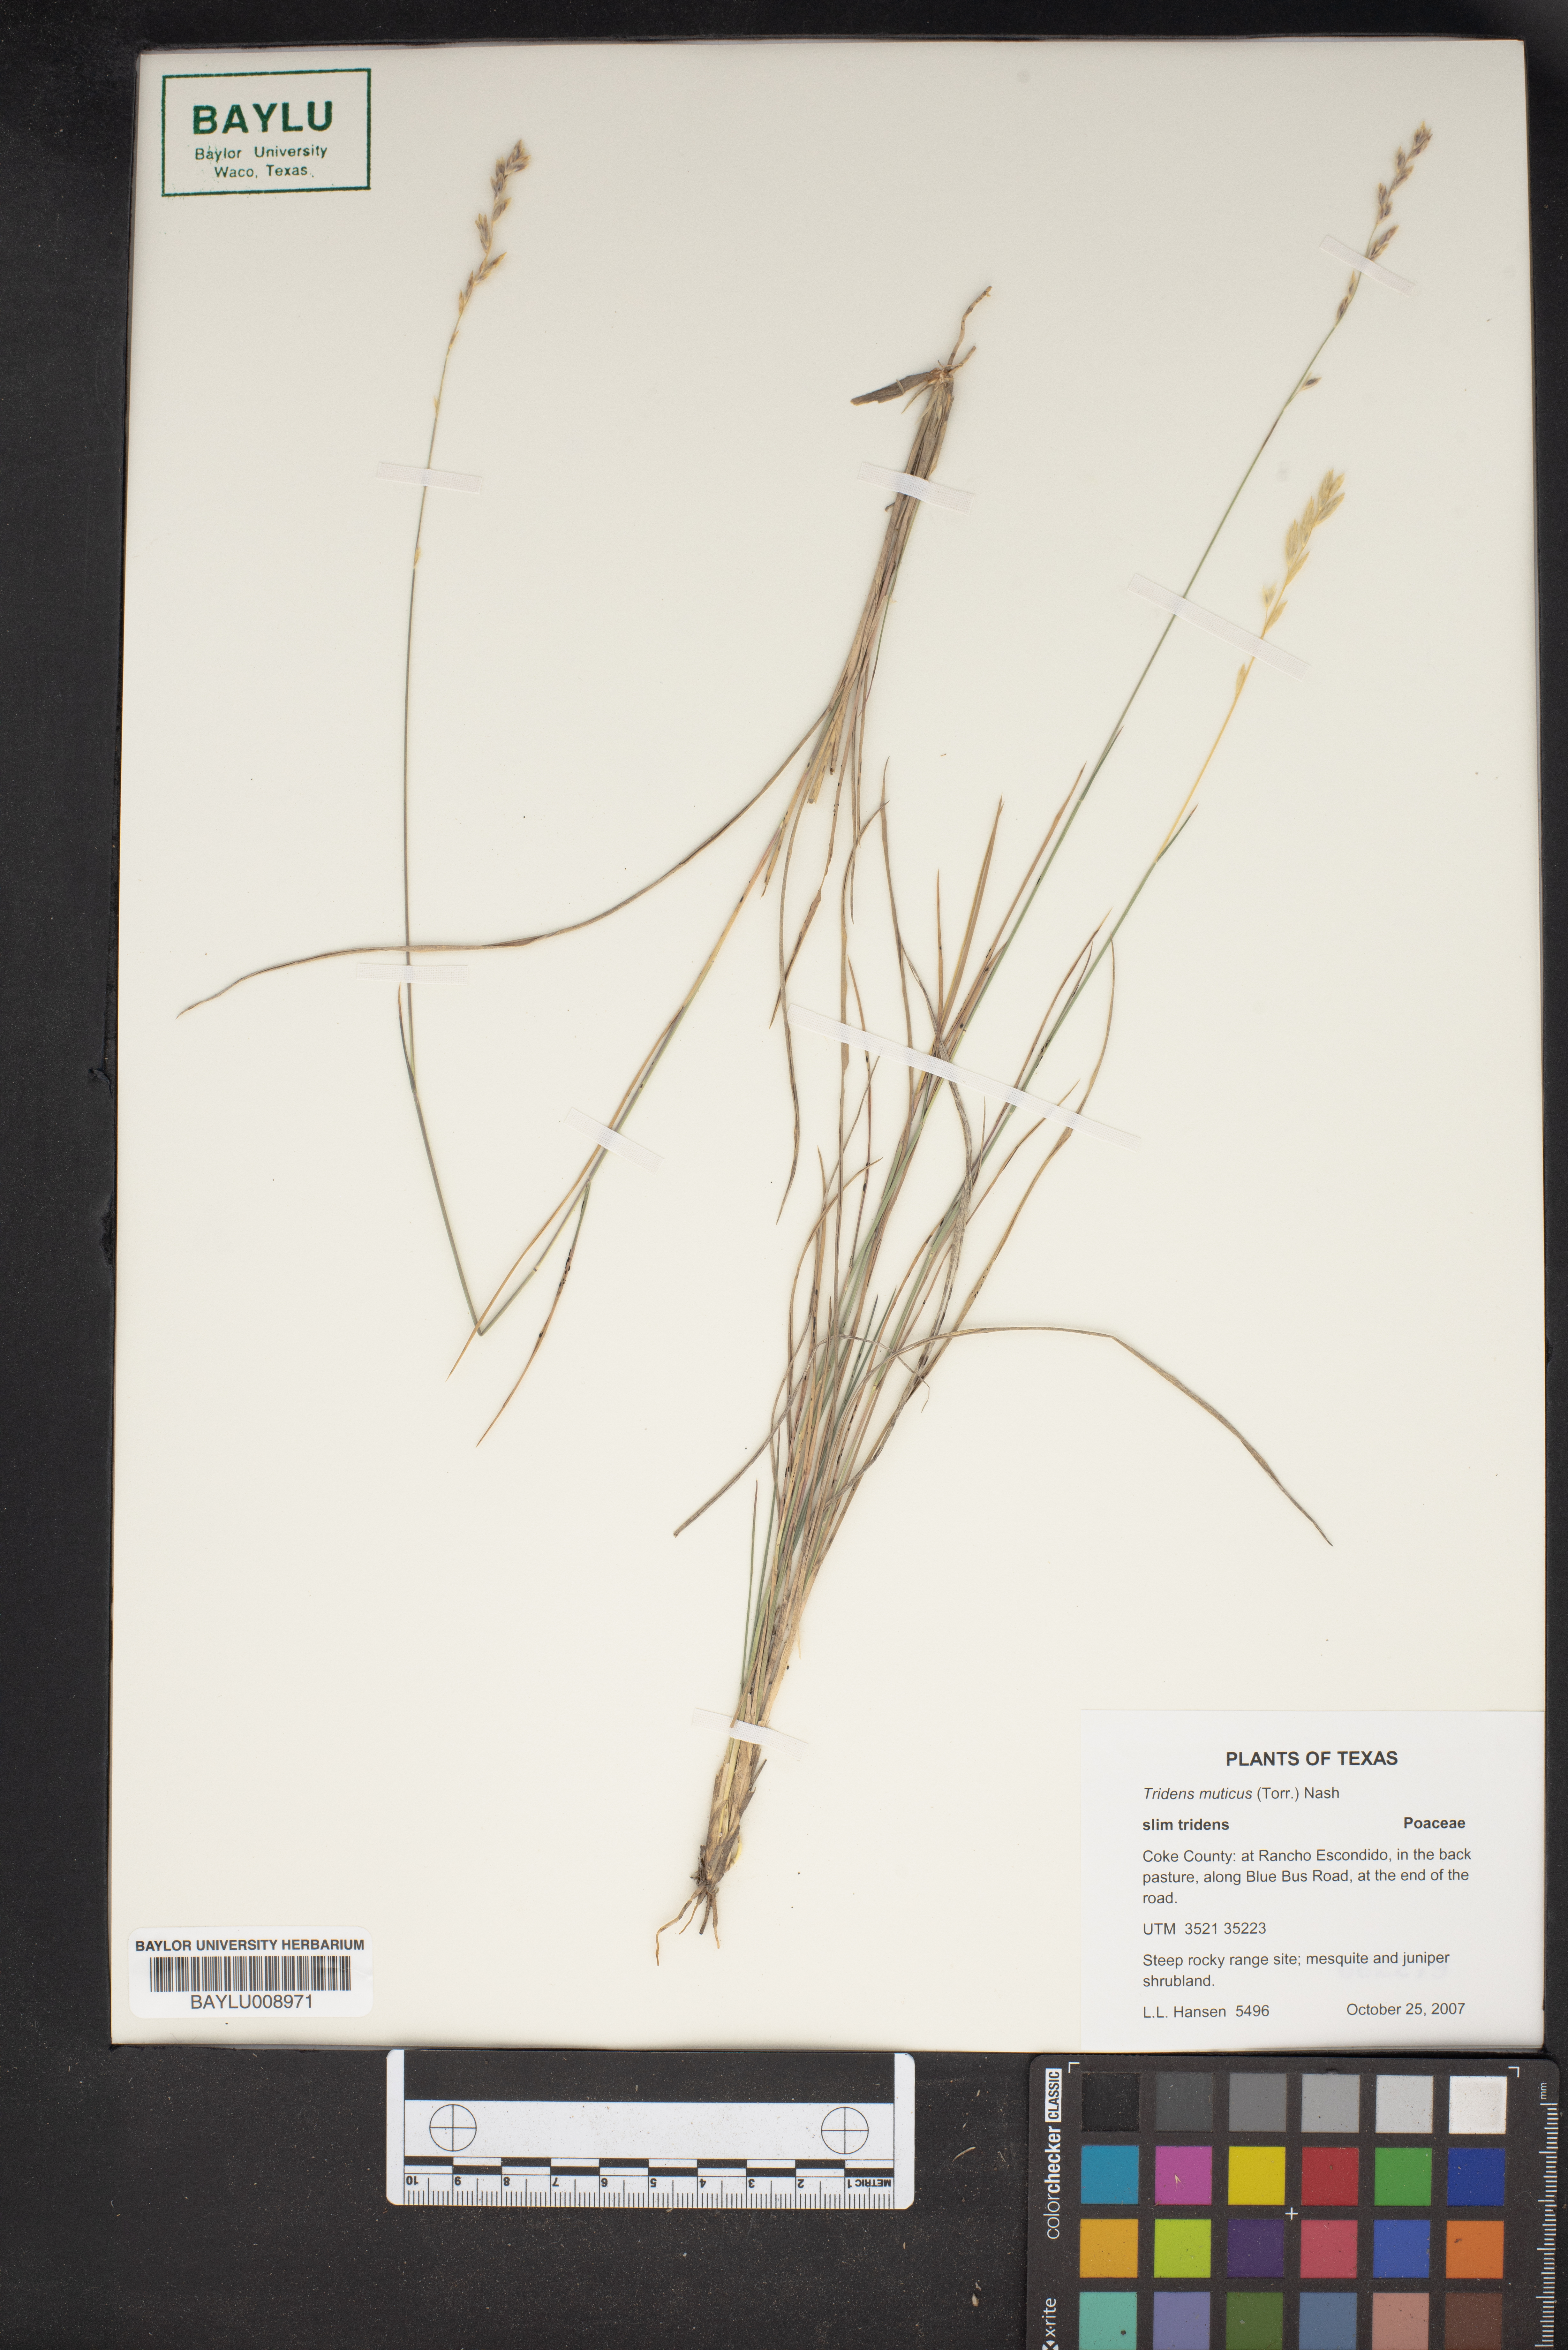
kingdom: Plantae
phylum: Tracheophyta
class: Liliopsida
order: Poales
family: Poaceae
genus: Tridentopsis
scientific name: Tridentopsis mutica
